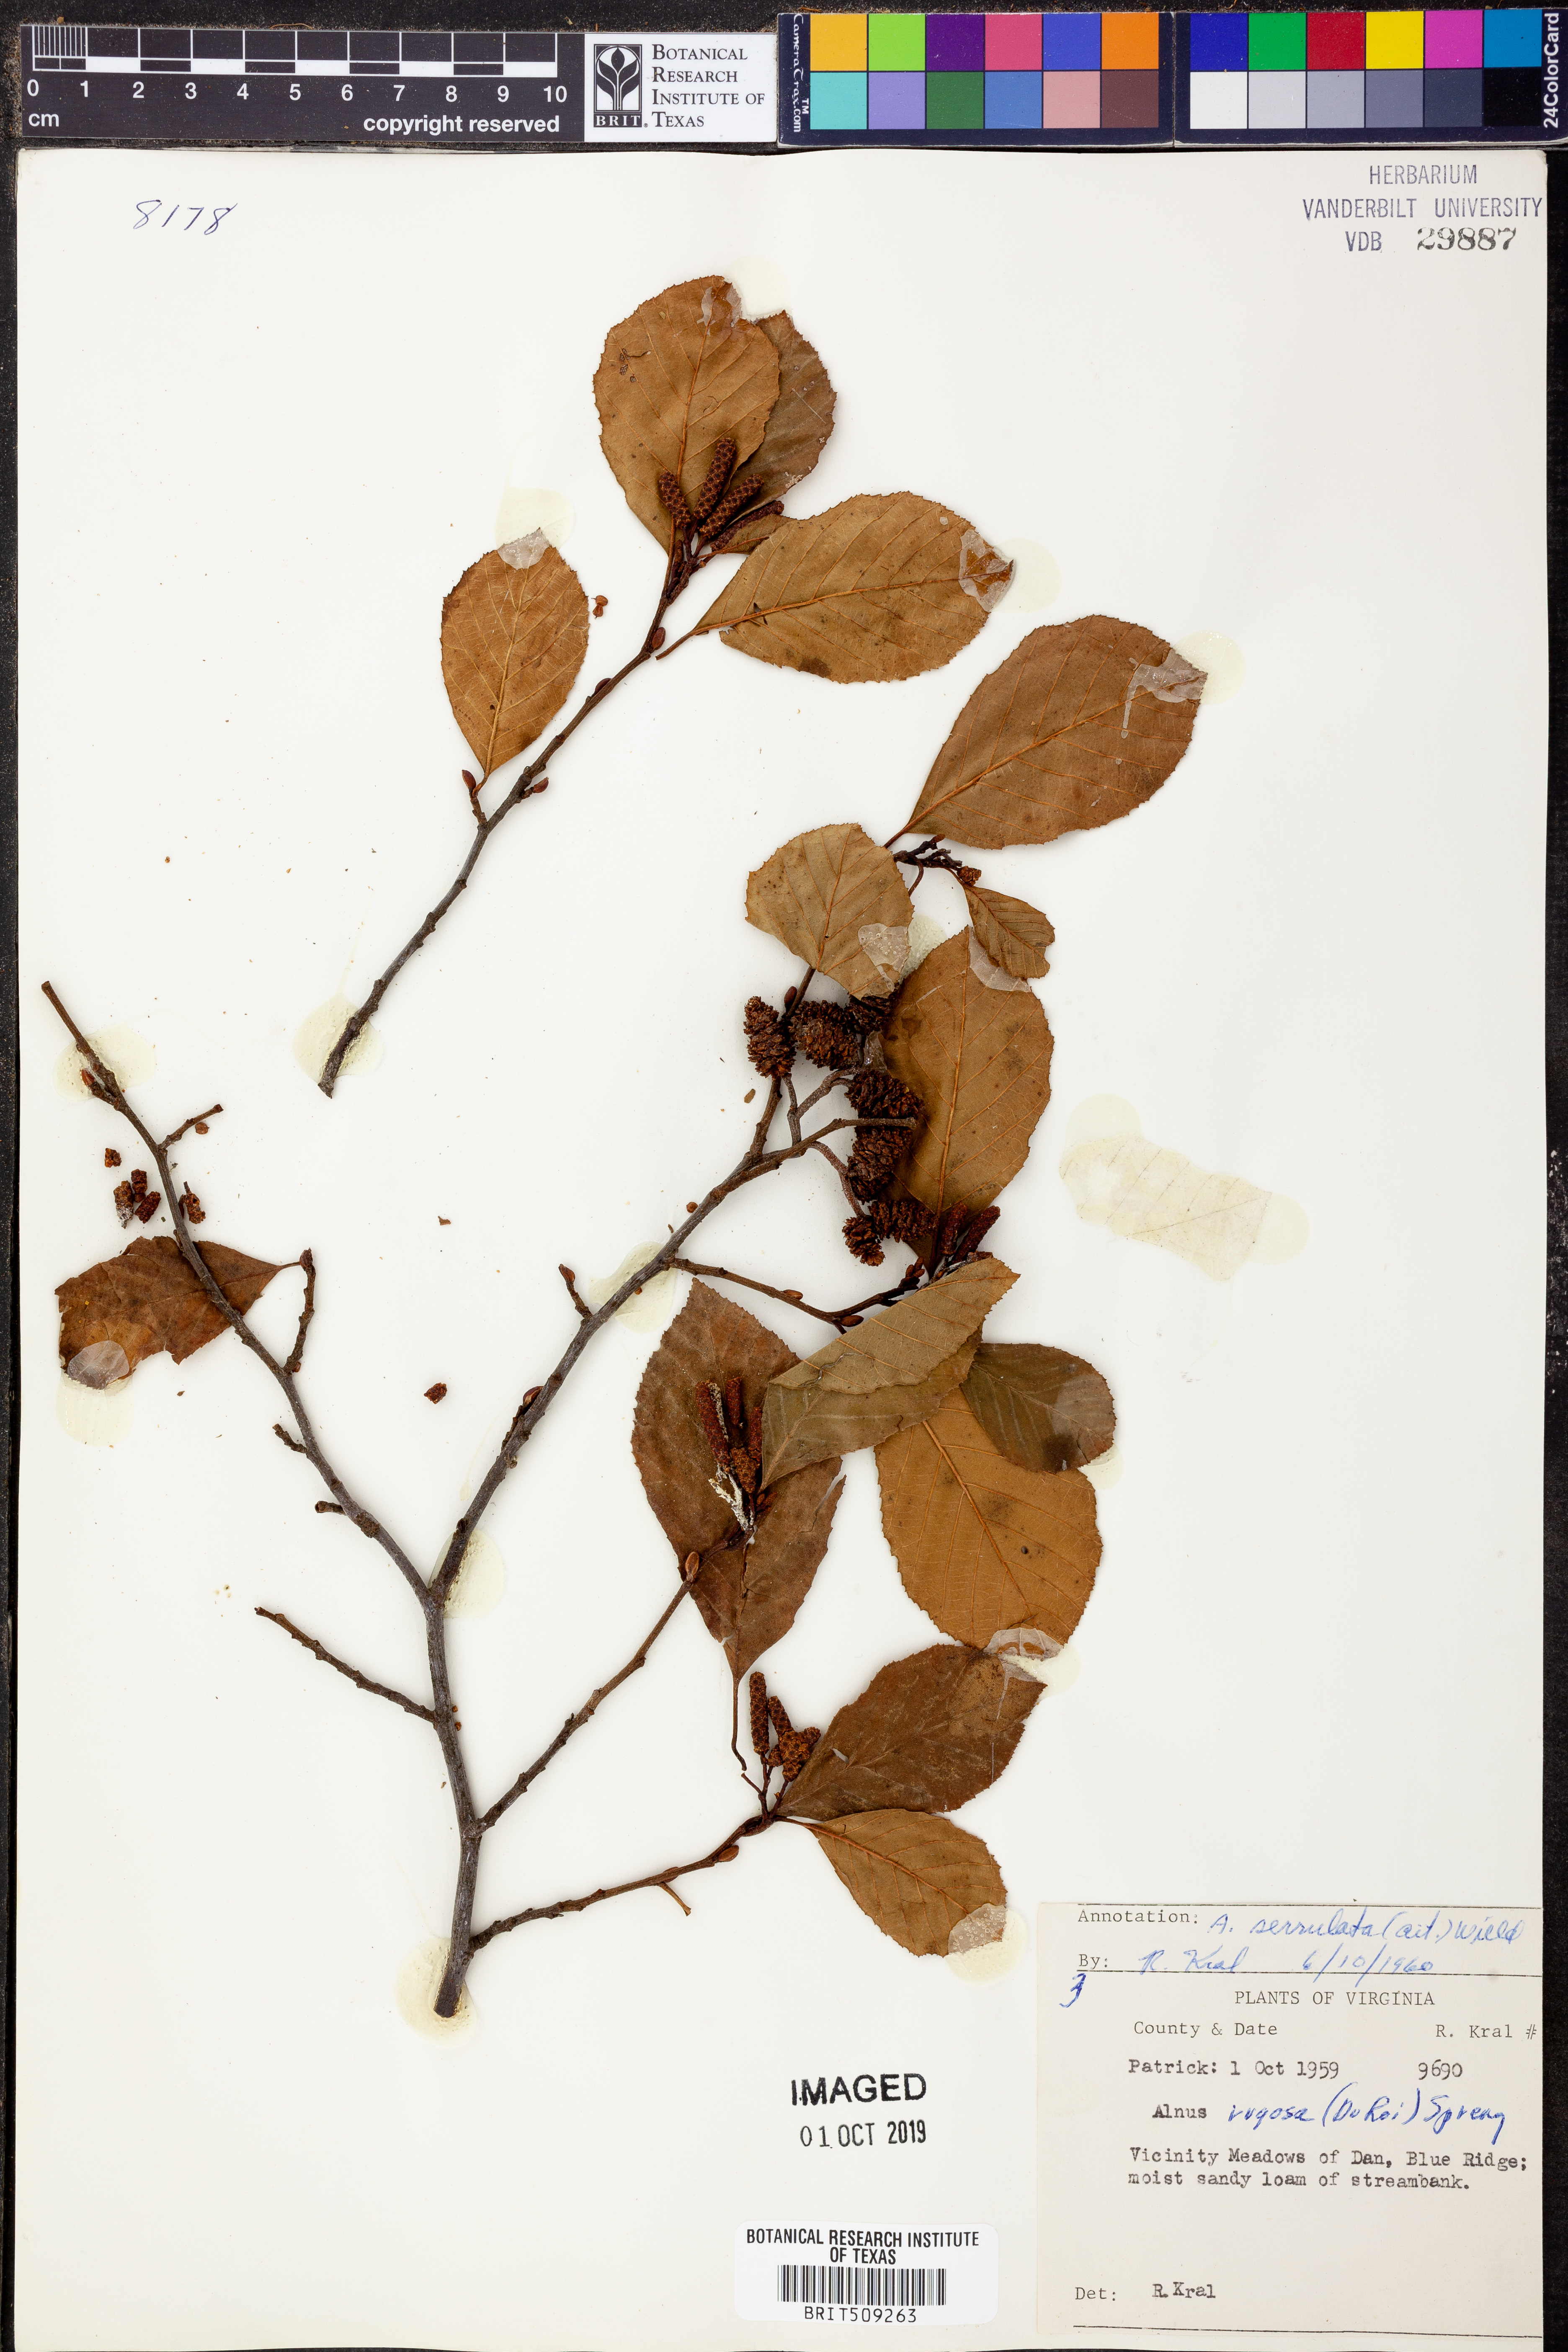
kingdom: Plantae
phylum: Tracheophyta
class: Magnoliopsida
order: Fagales
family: Betulaceae
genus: Alnus
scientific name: Alnus serrulata
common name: Hazel alder
